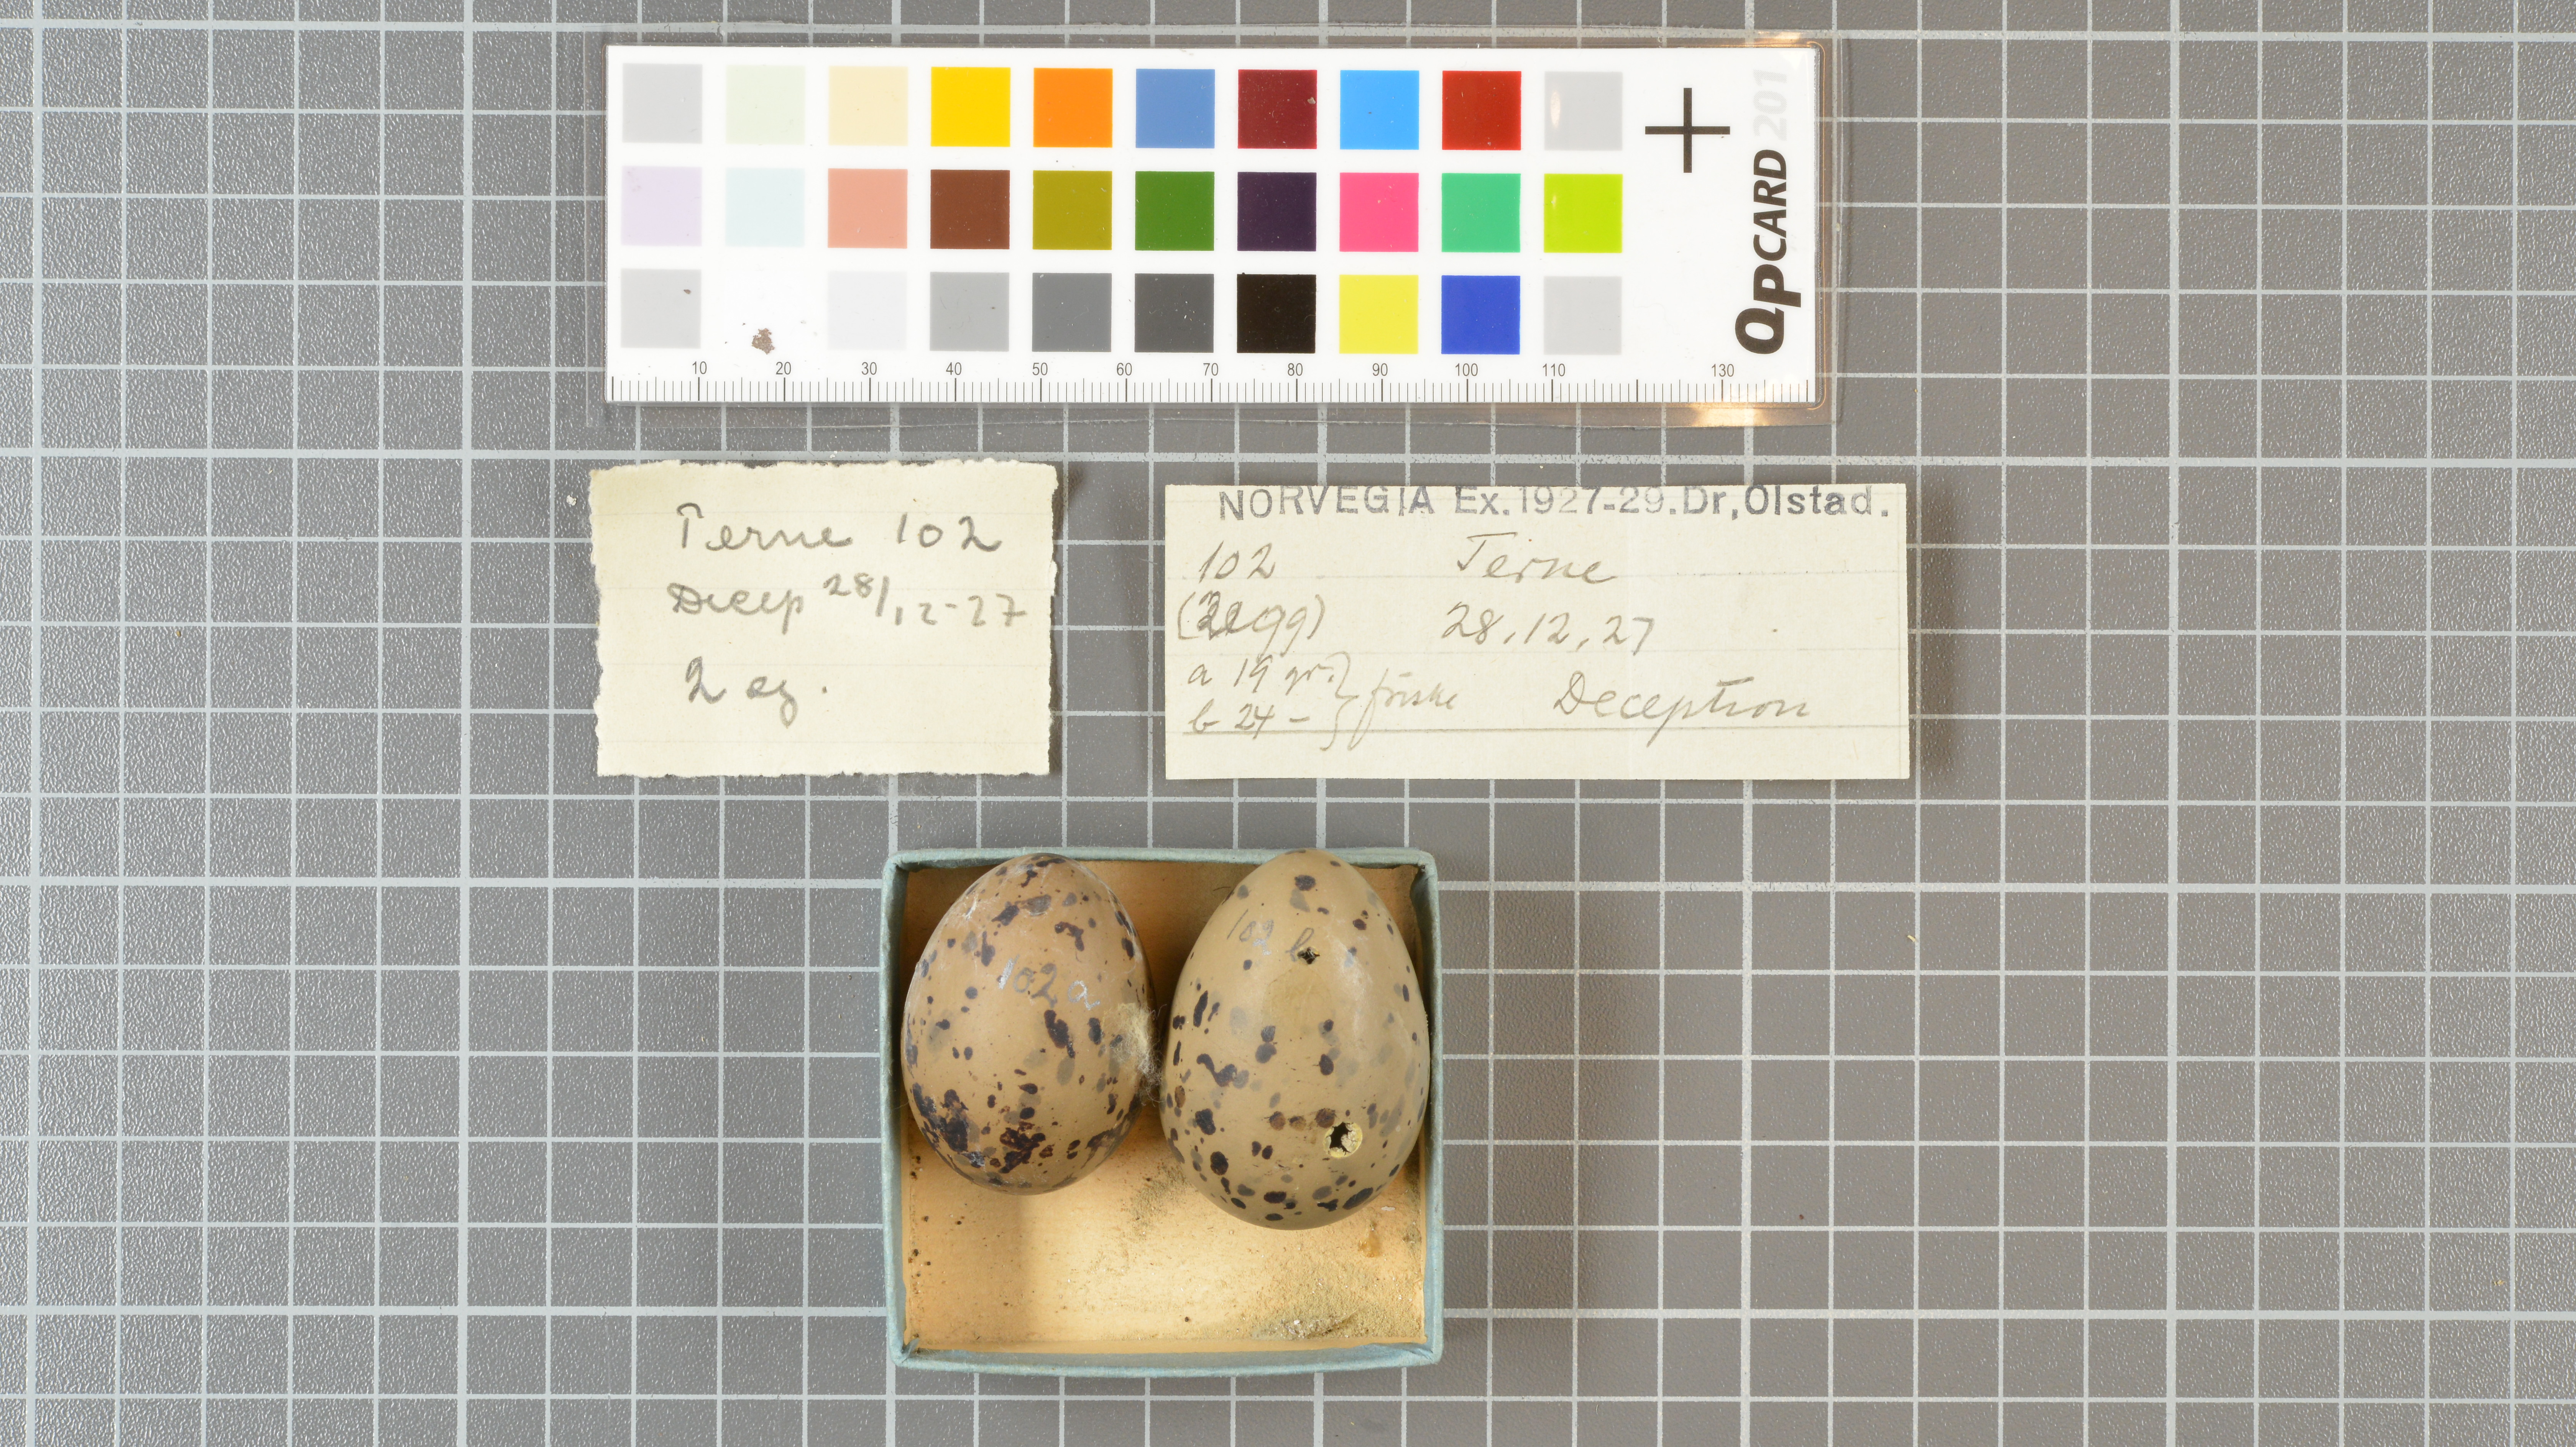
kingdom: Animalia
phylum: Chordata
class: Aves
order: Charadriiformes
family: Laridae
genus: Sterna
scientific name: Sterna vittata
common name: Antarctic tern
